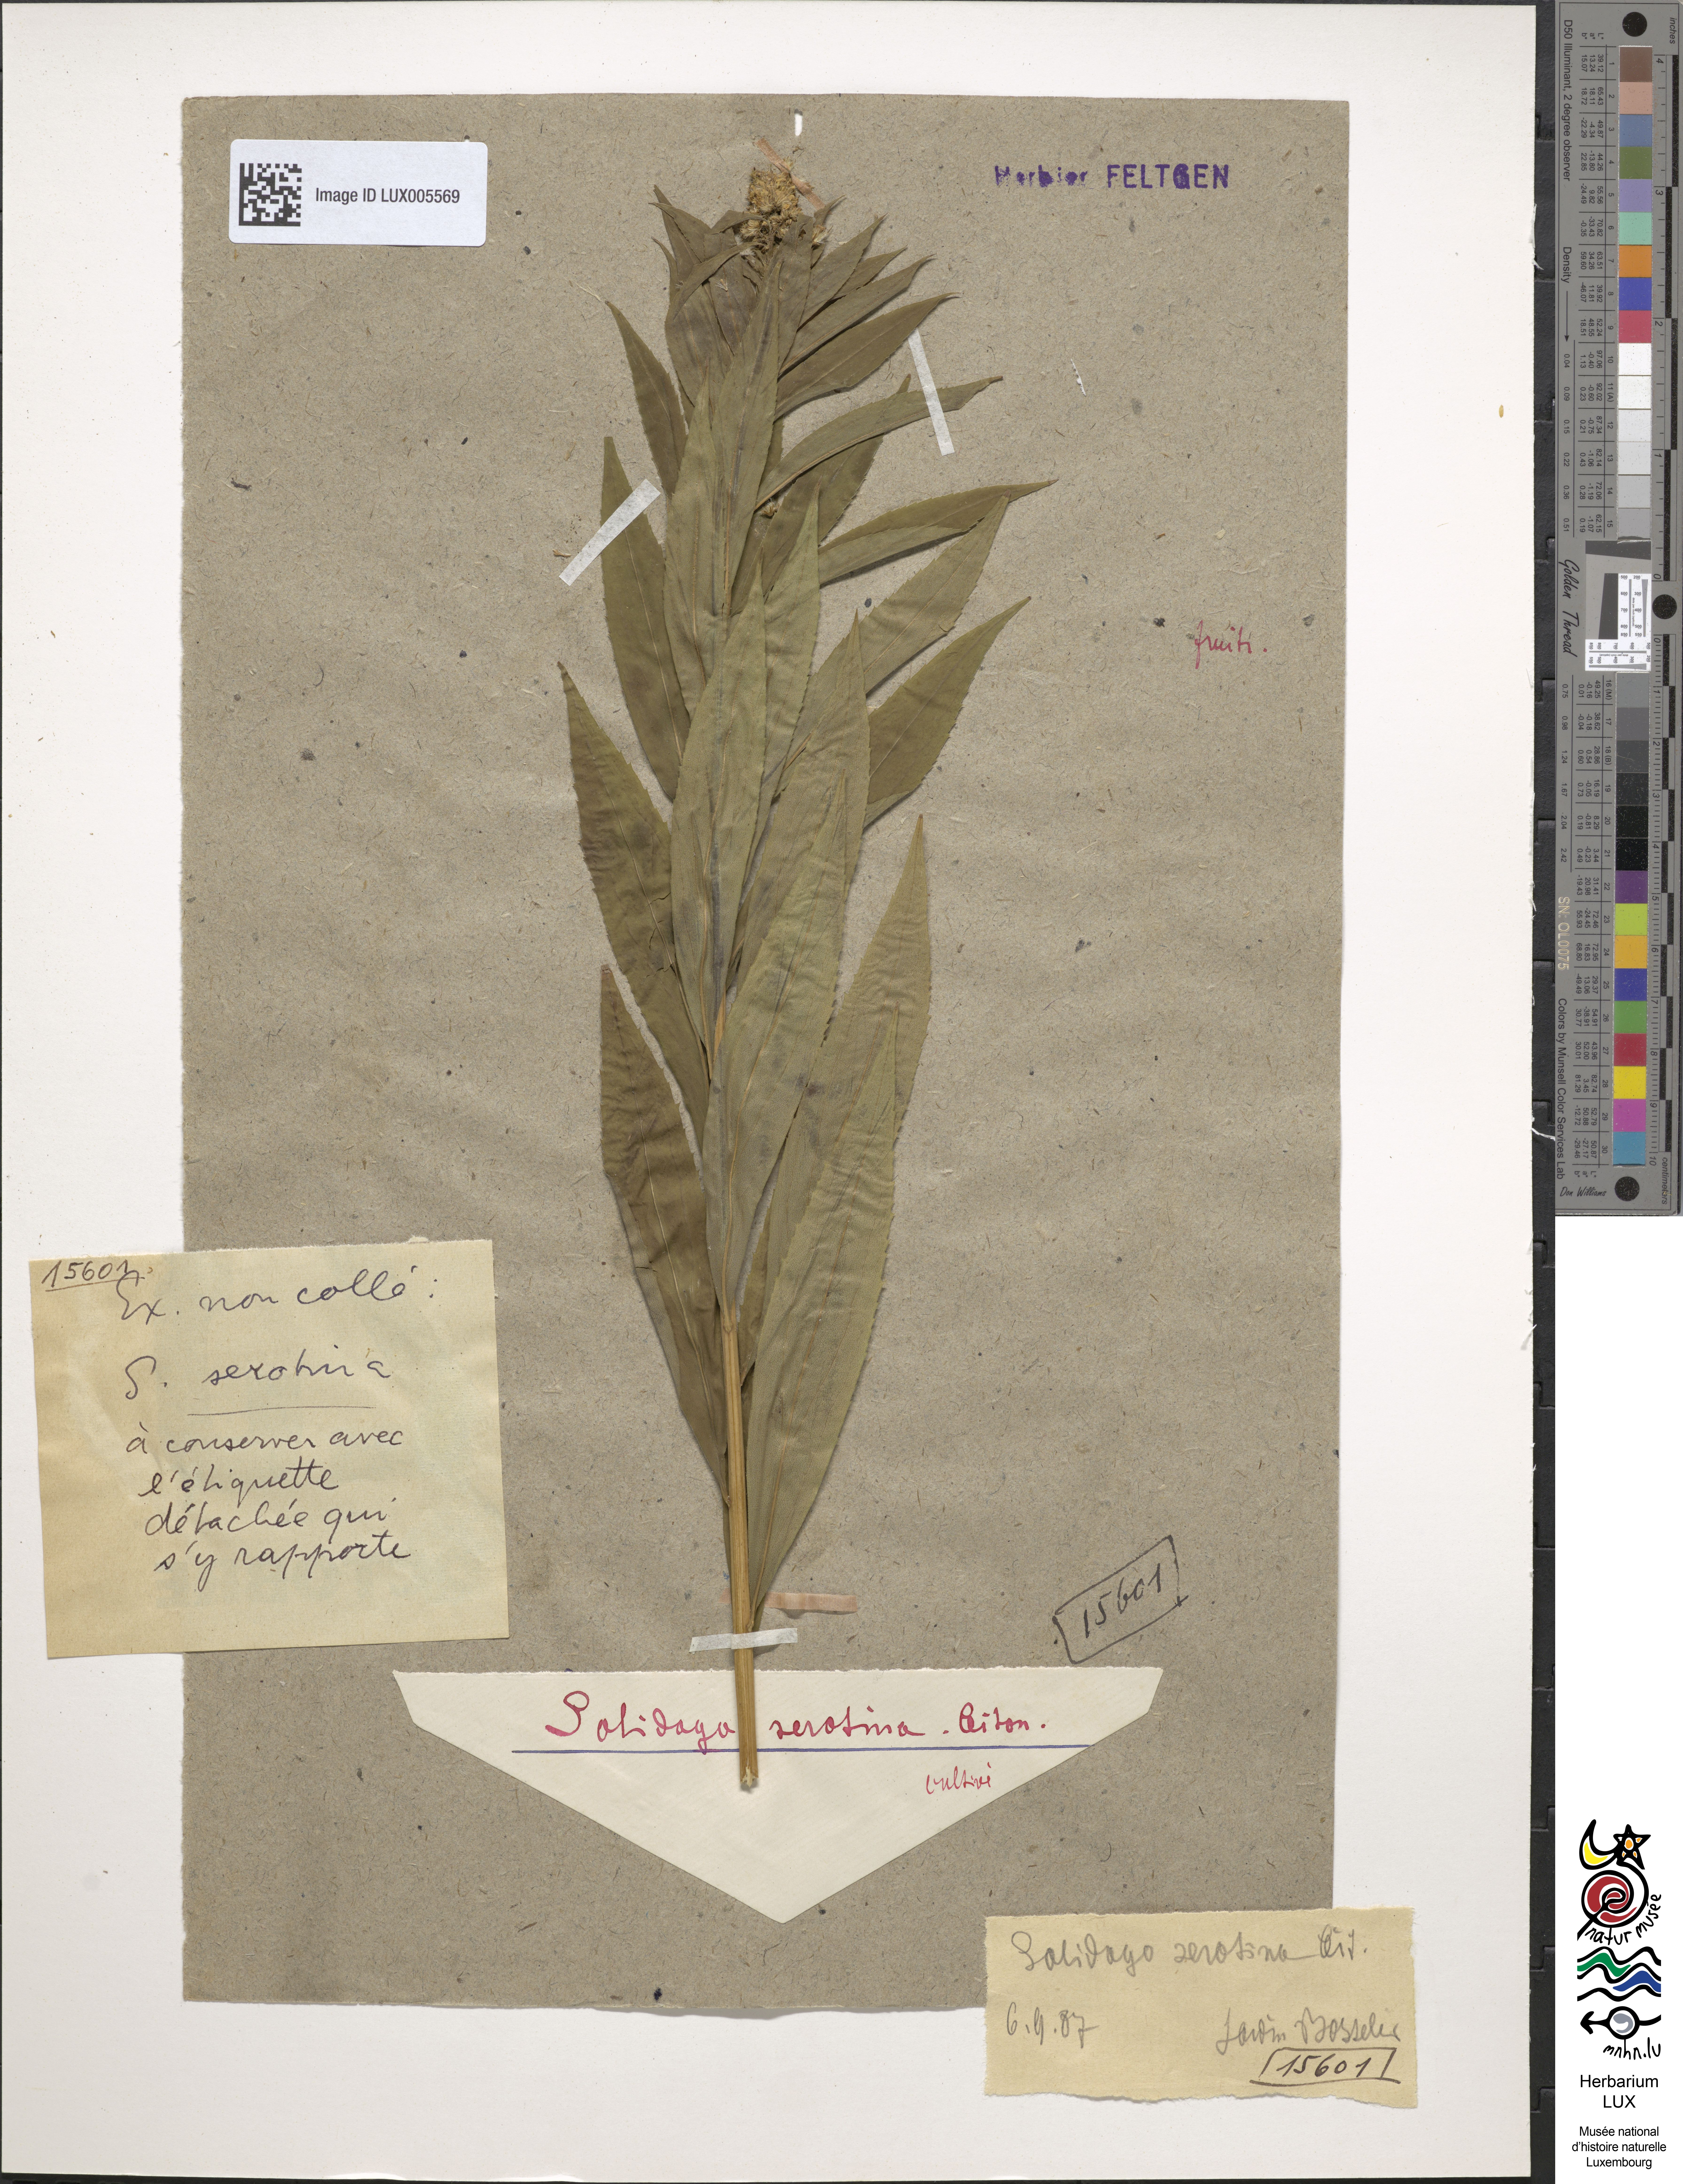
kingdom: Plantae
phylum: Tracheophyta
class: Magnoliopsida
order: Asterales
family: Asteraceae
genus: Solidago
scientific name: Solidago gigantea
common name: Giant goldenrod
